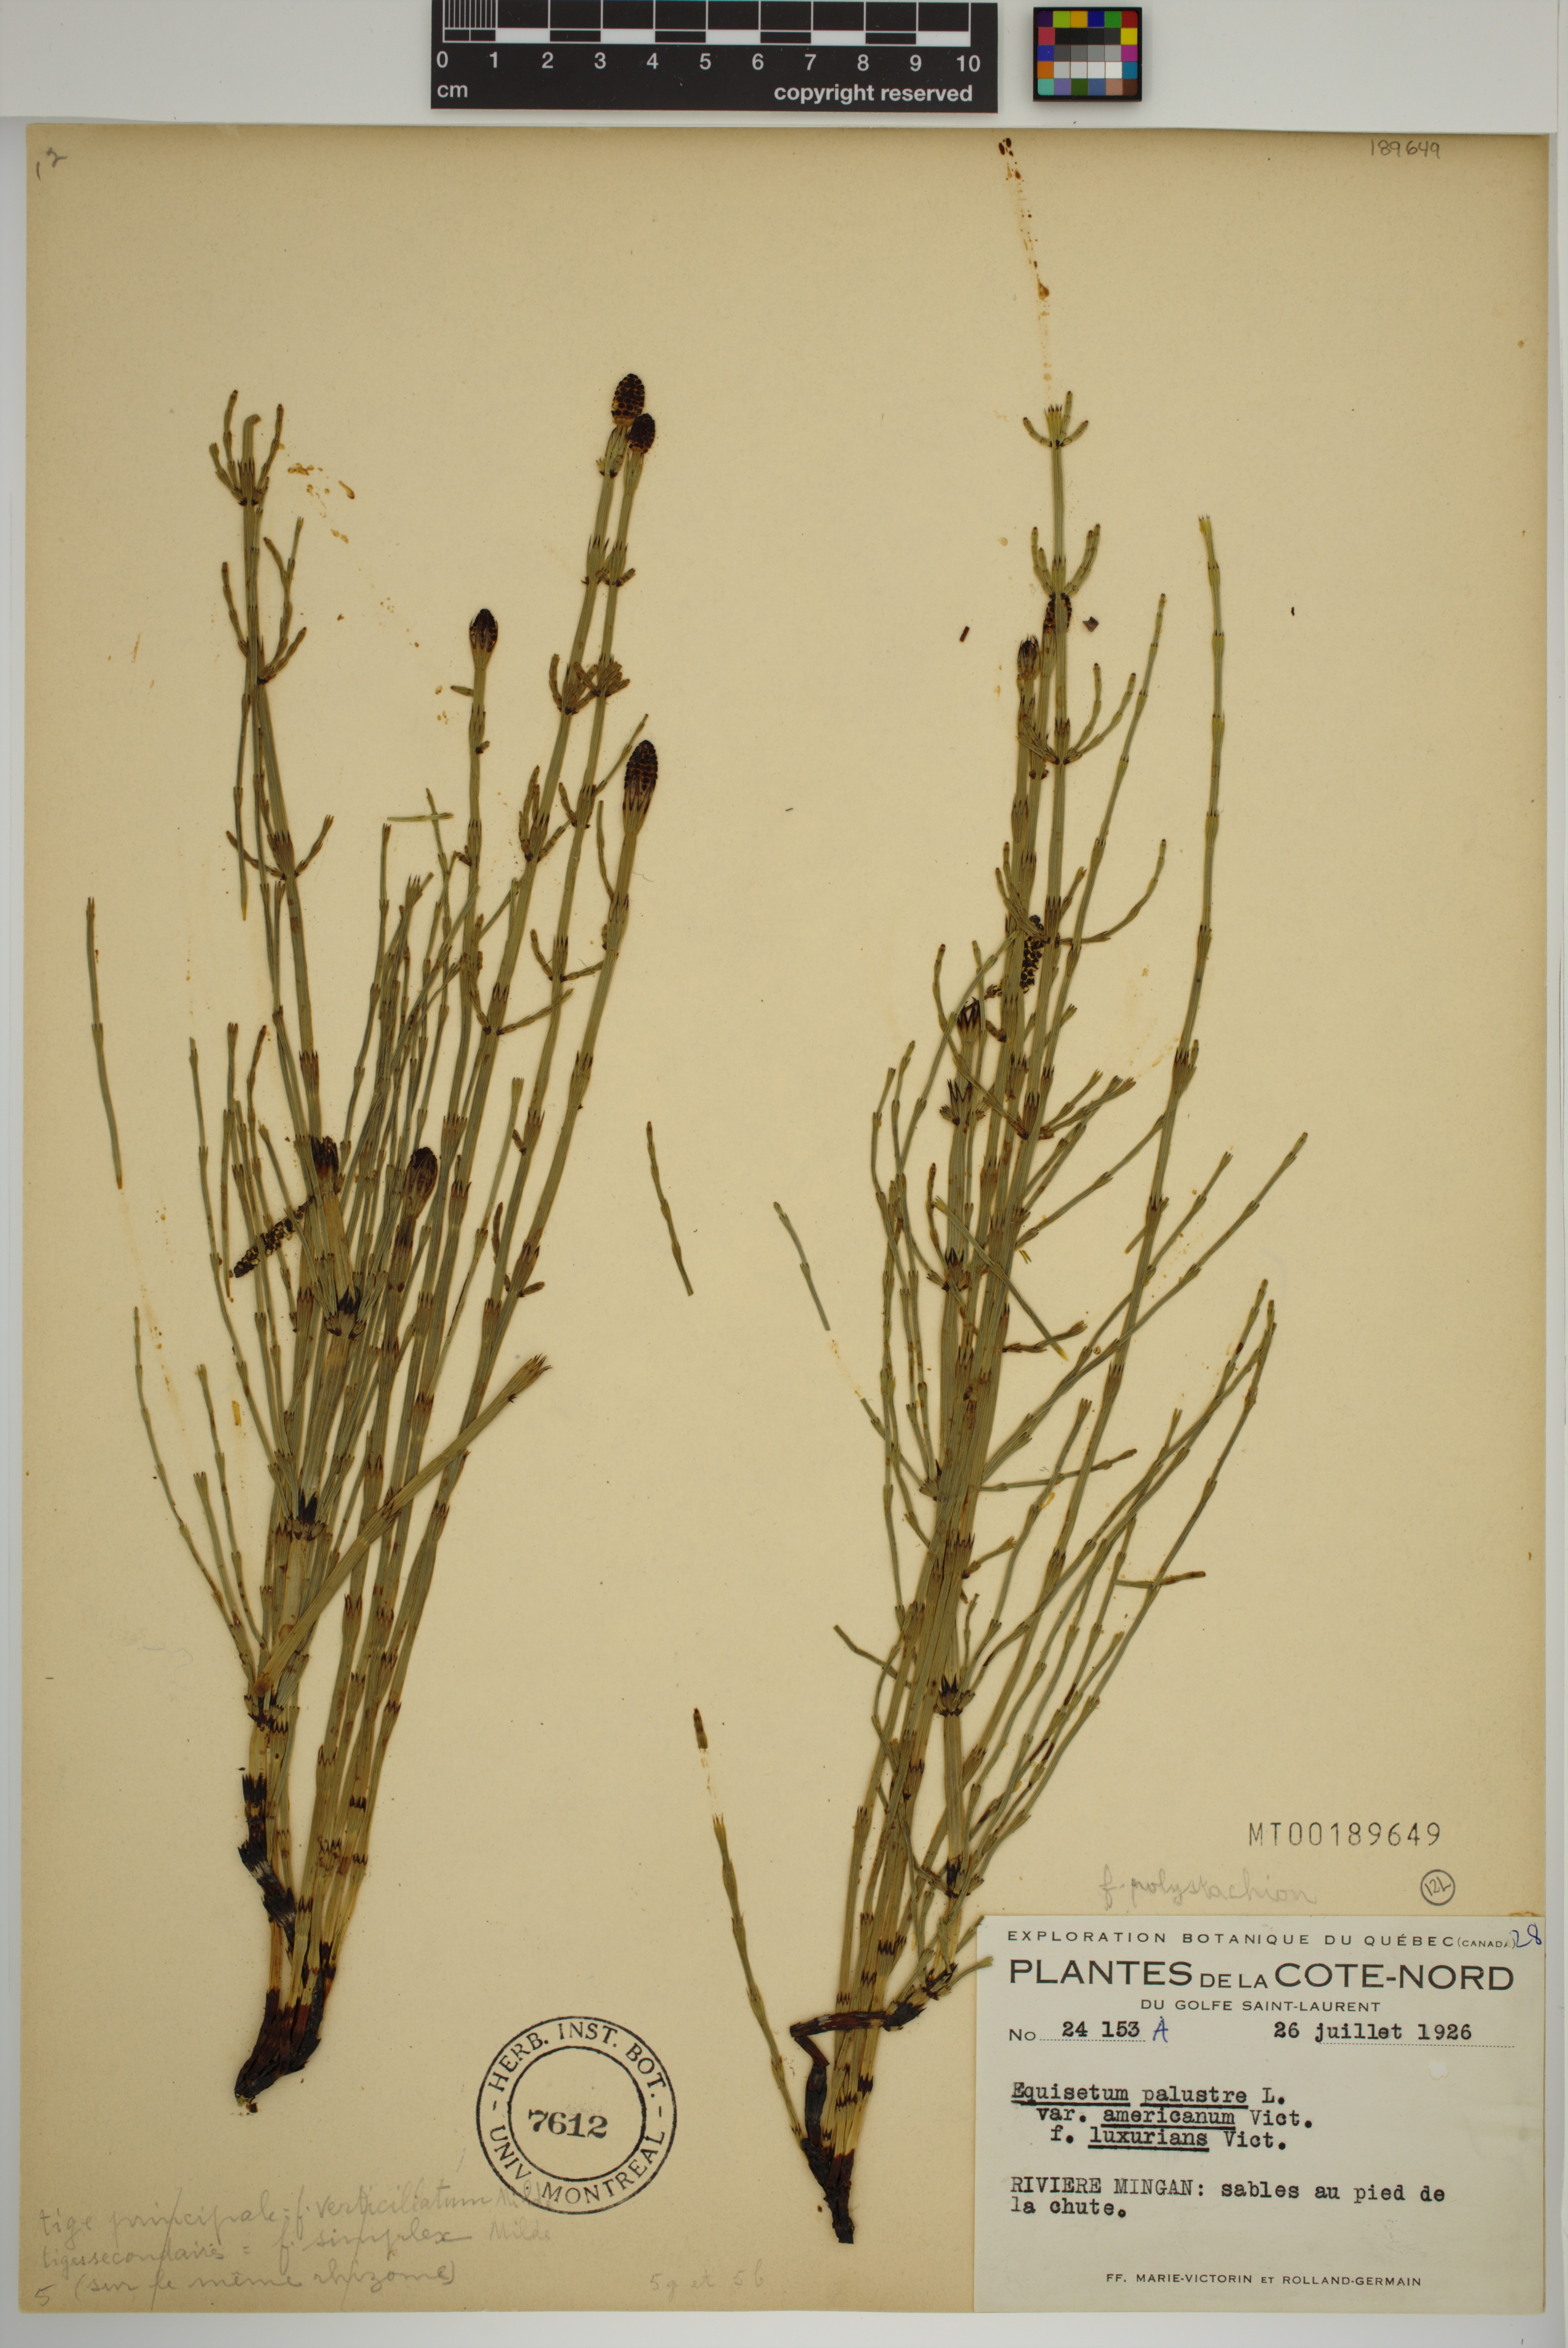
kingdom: Plantae
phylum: Tracheophyta
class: Polypodiopsida
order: Equisetales
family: Equisetaceae
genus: Equisetum
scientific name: Equisetum palustre
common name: Marsh horsetail
